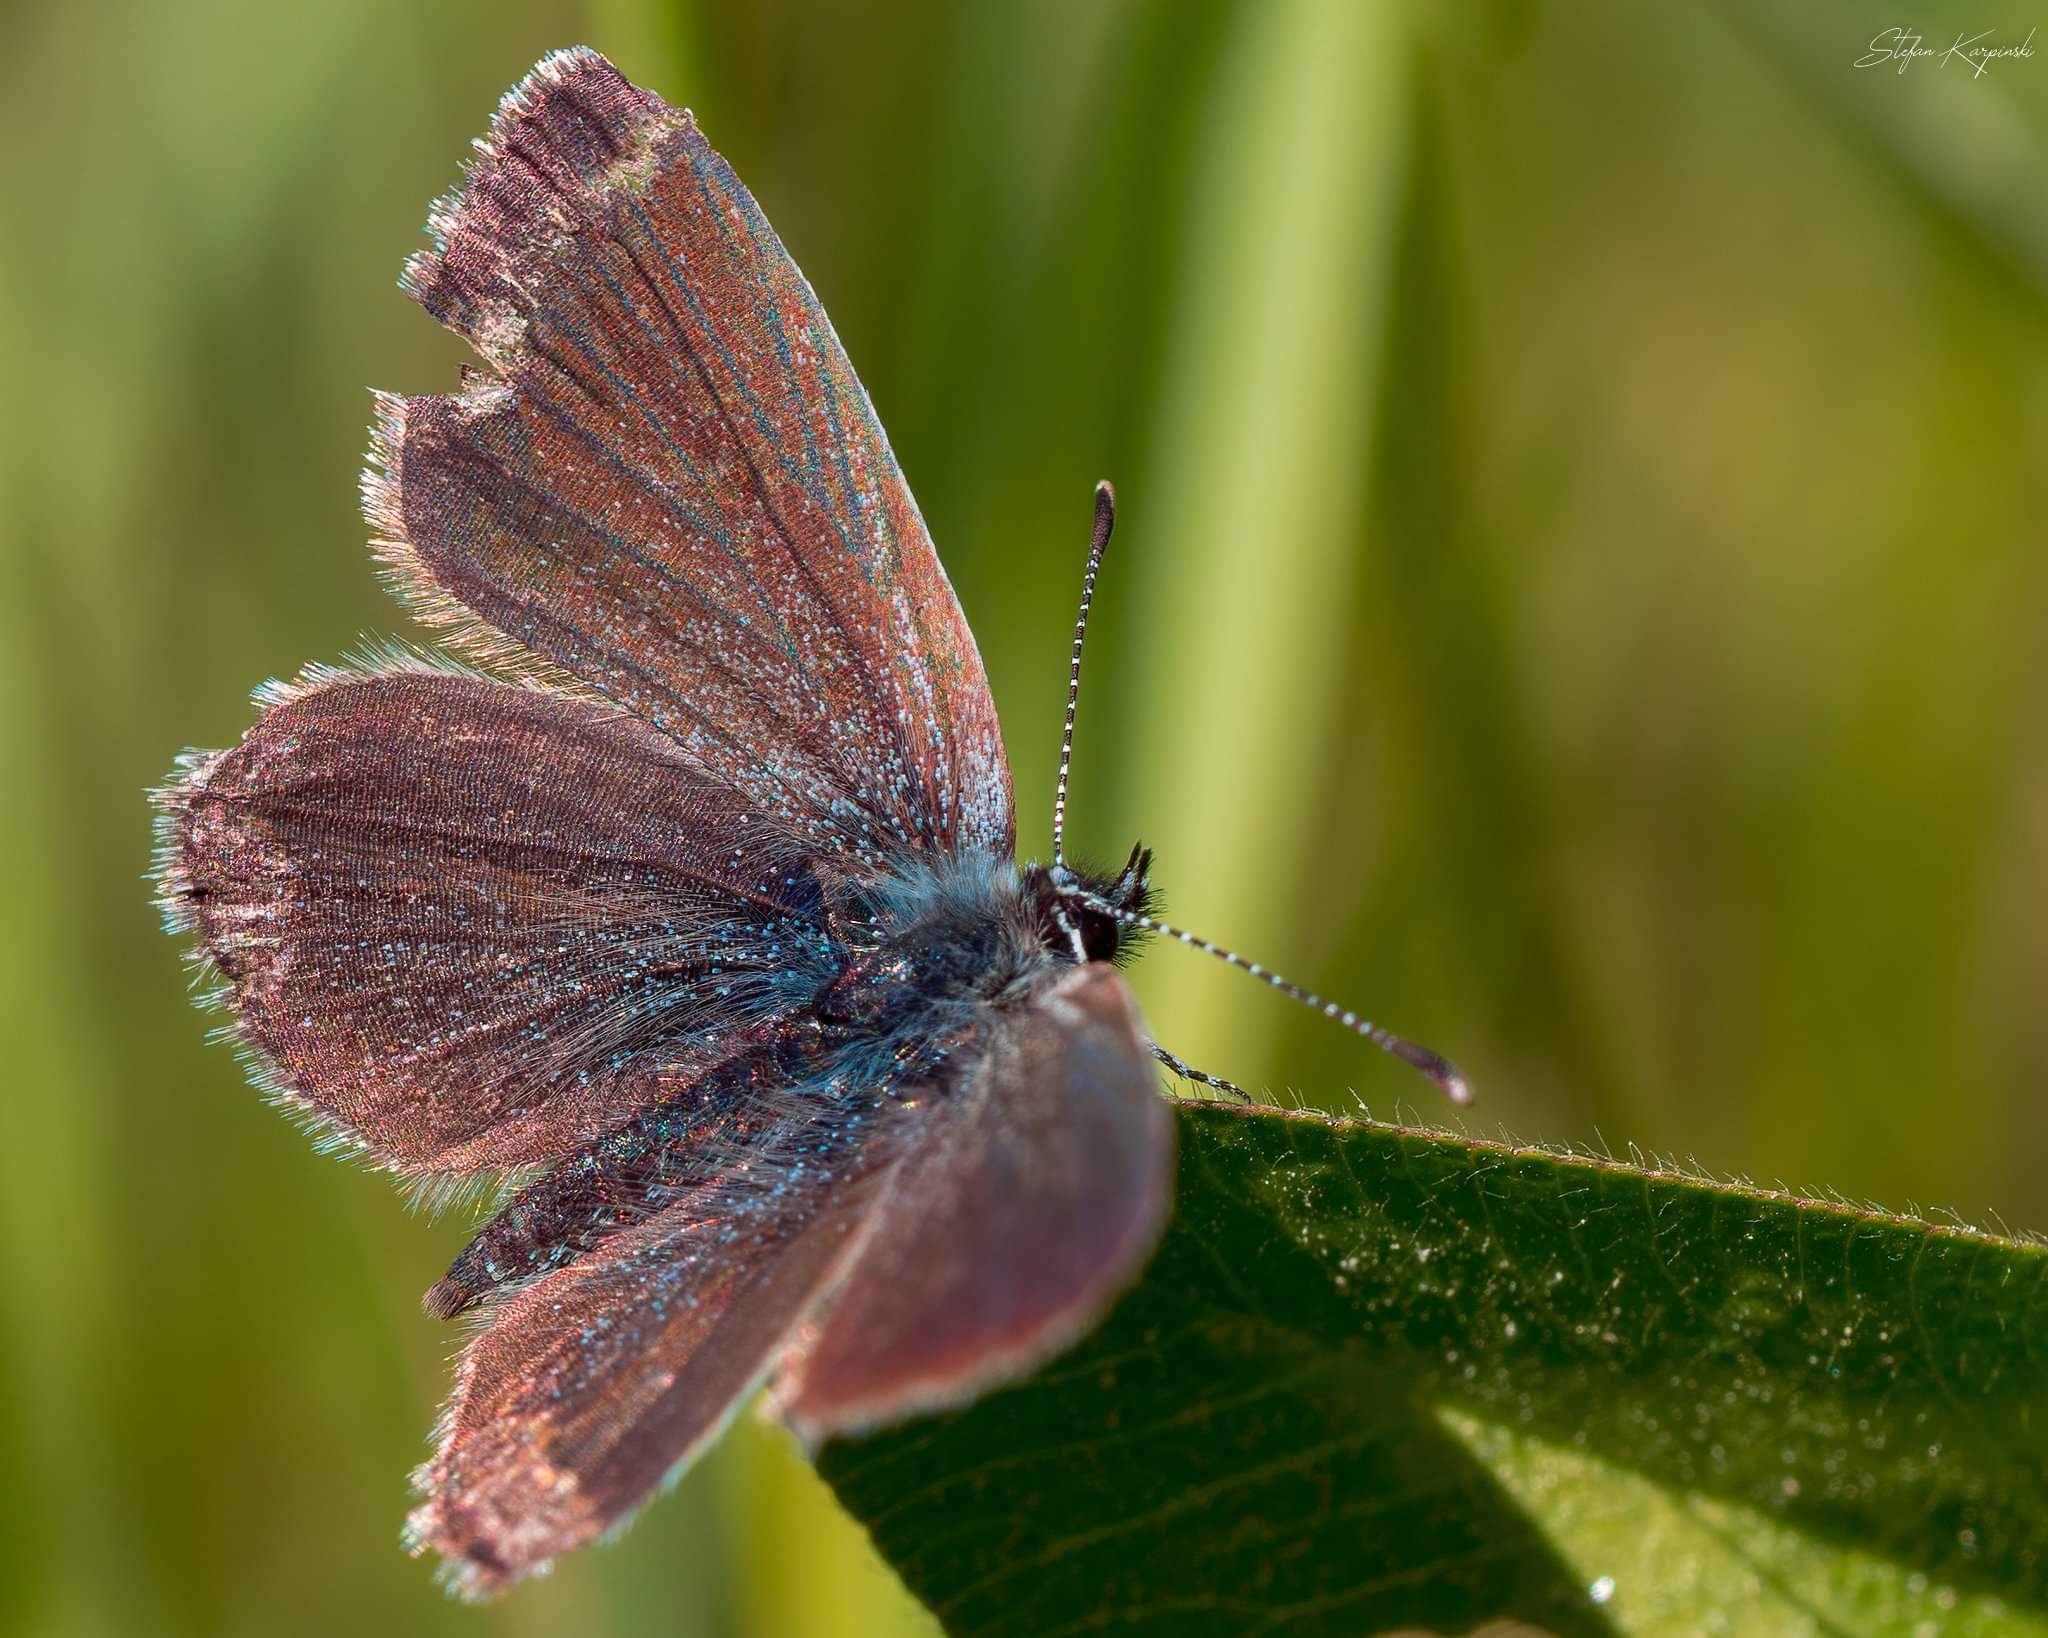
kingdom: Animalia
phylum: Arthropoda
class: Insecta
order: Lepidoptera
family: Lycaenidae
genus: Cupido
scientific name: Cupido minimus
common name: Dværgblåfugl
